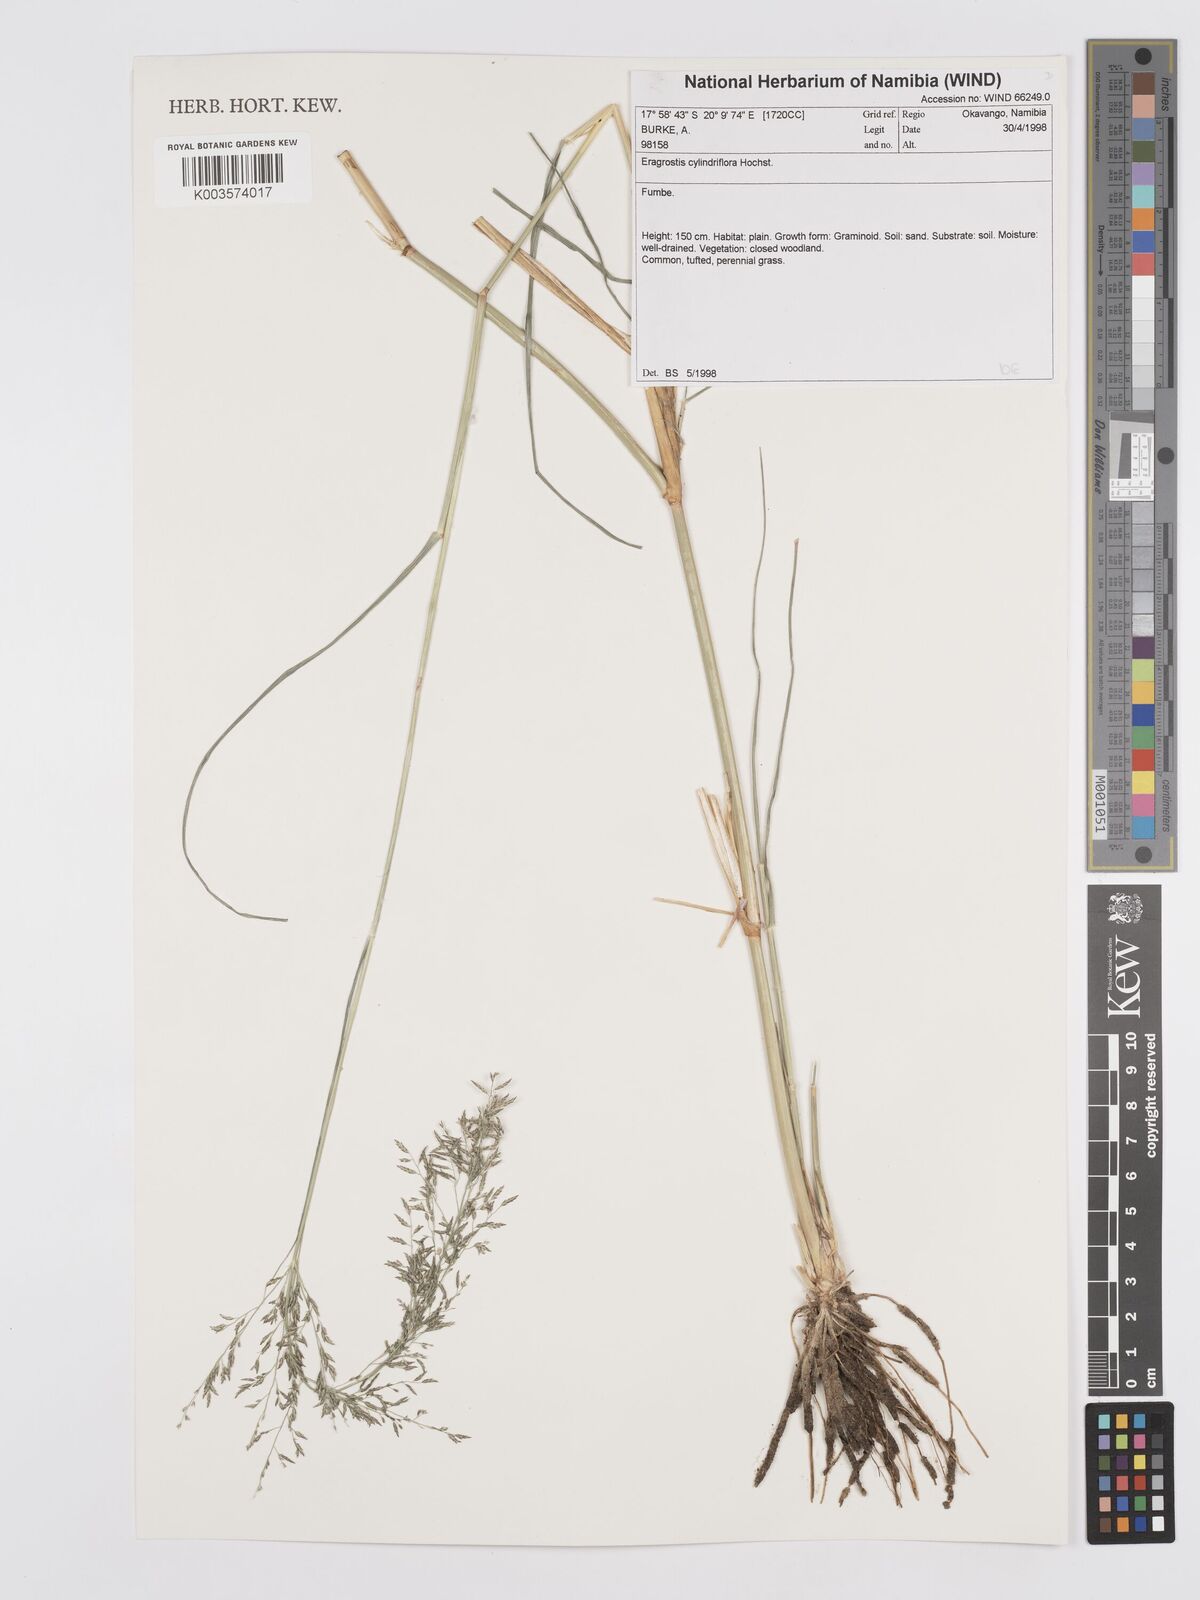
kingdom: Plantae
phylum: Tracheophyta
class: Liliopsida
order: Poales
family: Poaceae
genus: Eragrostis
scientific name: Eragrostis cylindriflora
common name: Cylinderflower lovegrass
